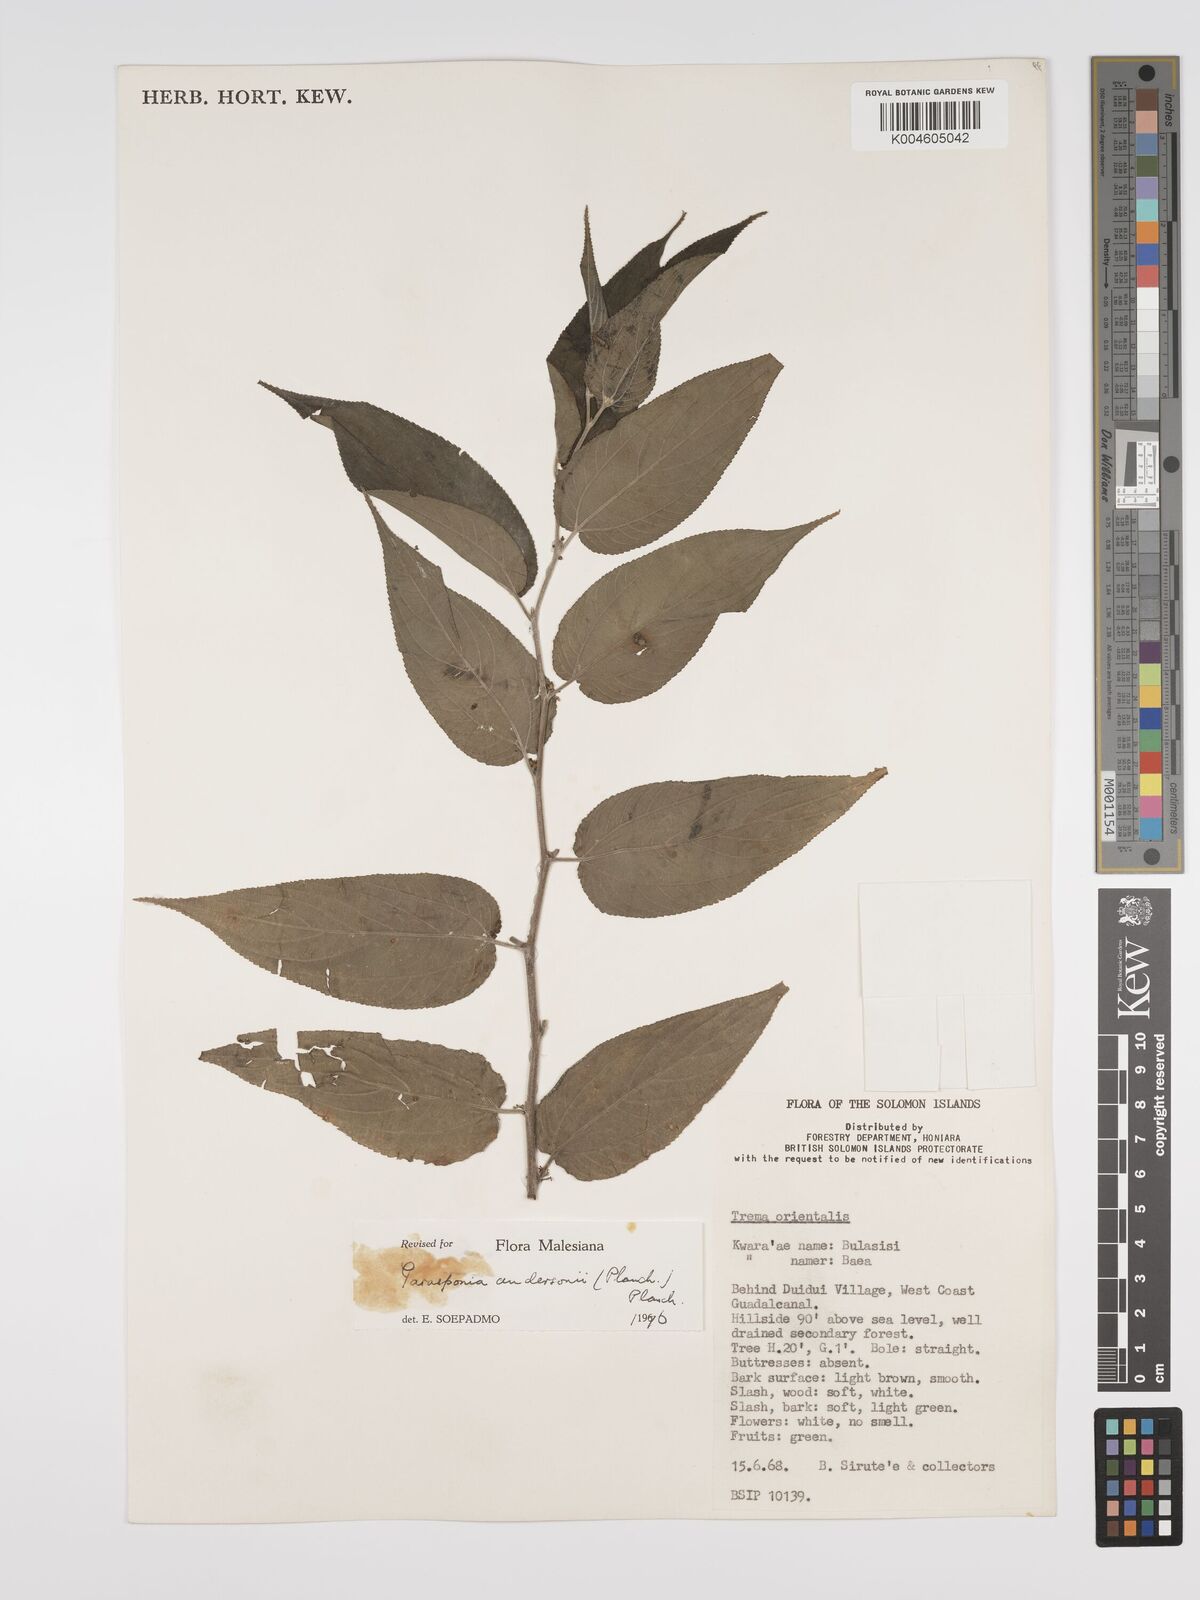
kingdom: Plantae
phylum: Tracheophyta
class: Magnoliopsida
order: Rosales
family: Cannabaceae
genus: Trema
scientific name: Trema andersonii
